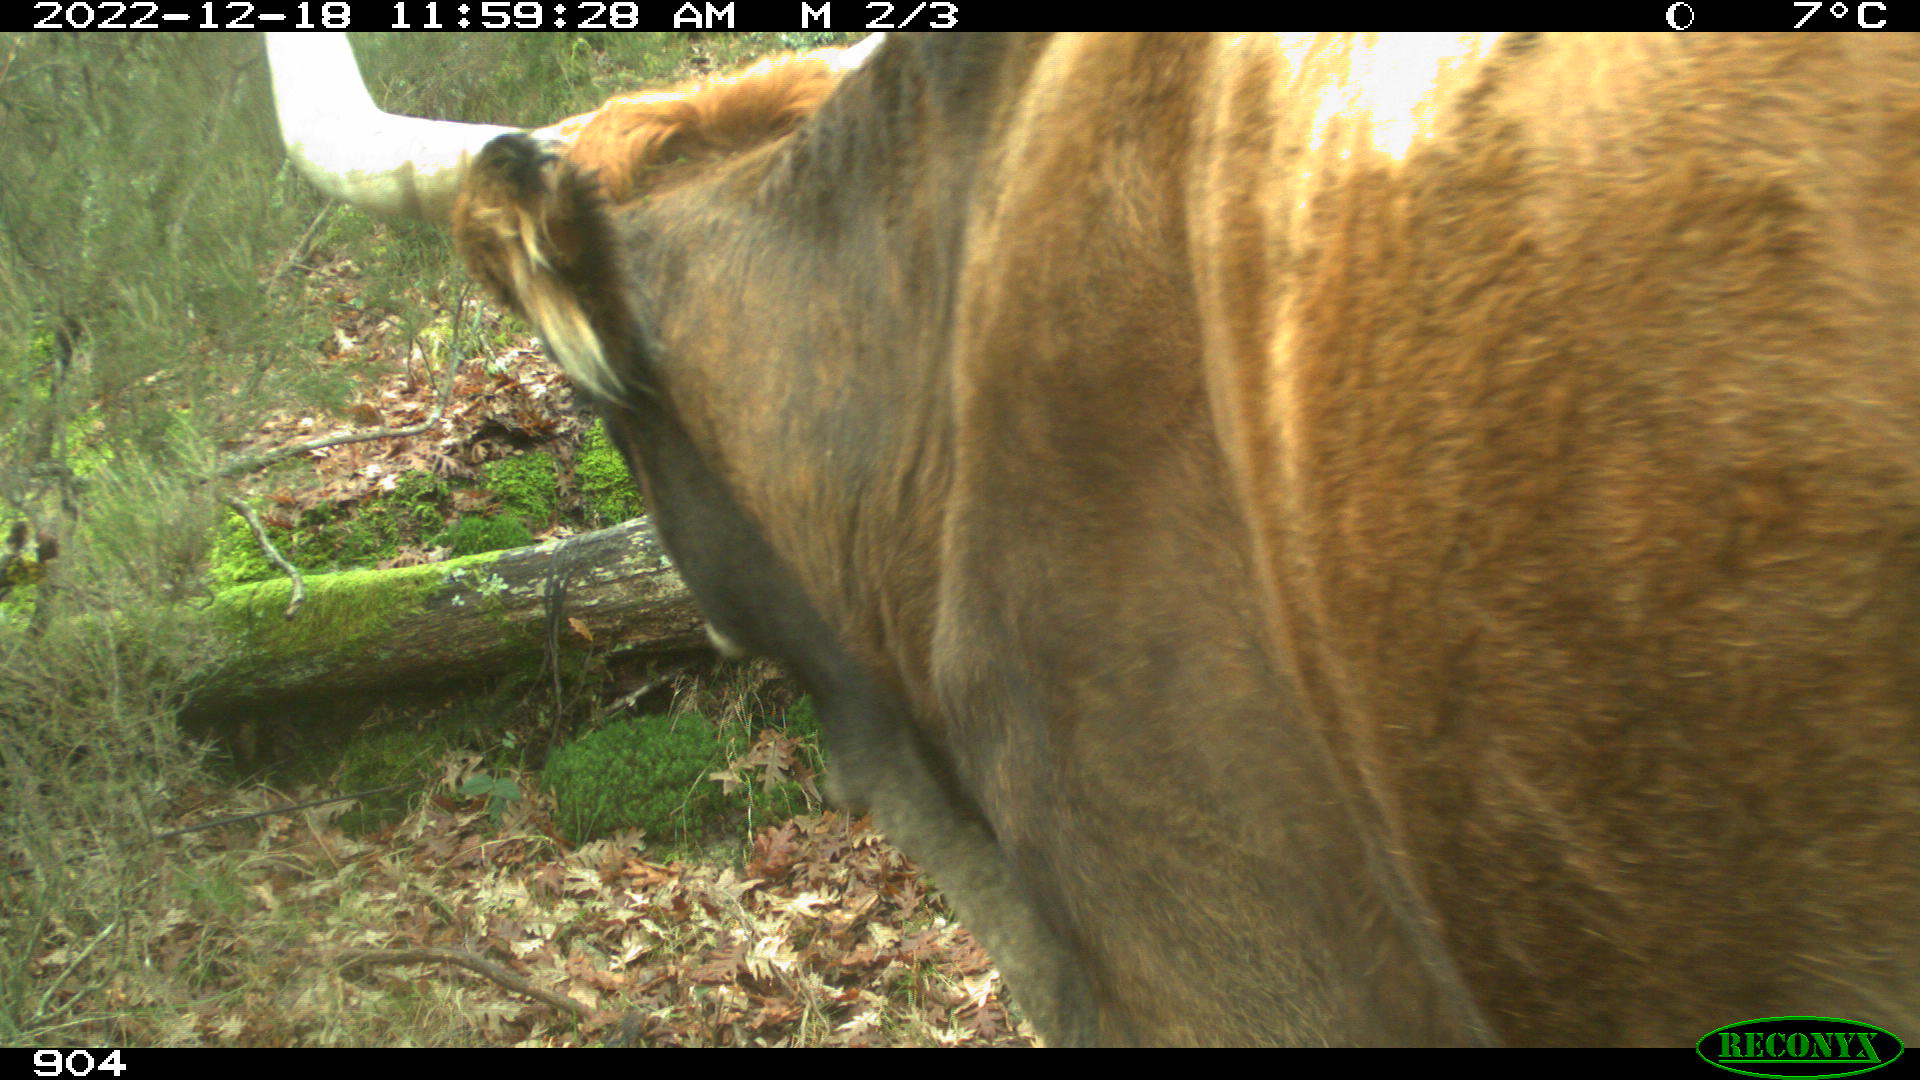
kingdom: Animalia
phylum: Chordata
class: Mammalia
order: Artiodactyla
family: Bovidae
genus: Bos
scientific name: Bos taurus
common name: Domesticated cattle
